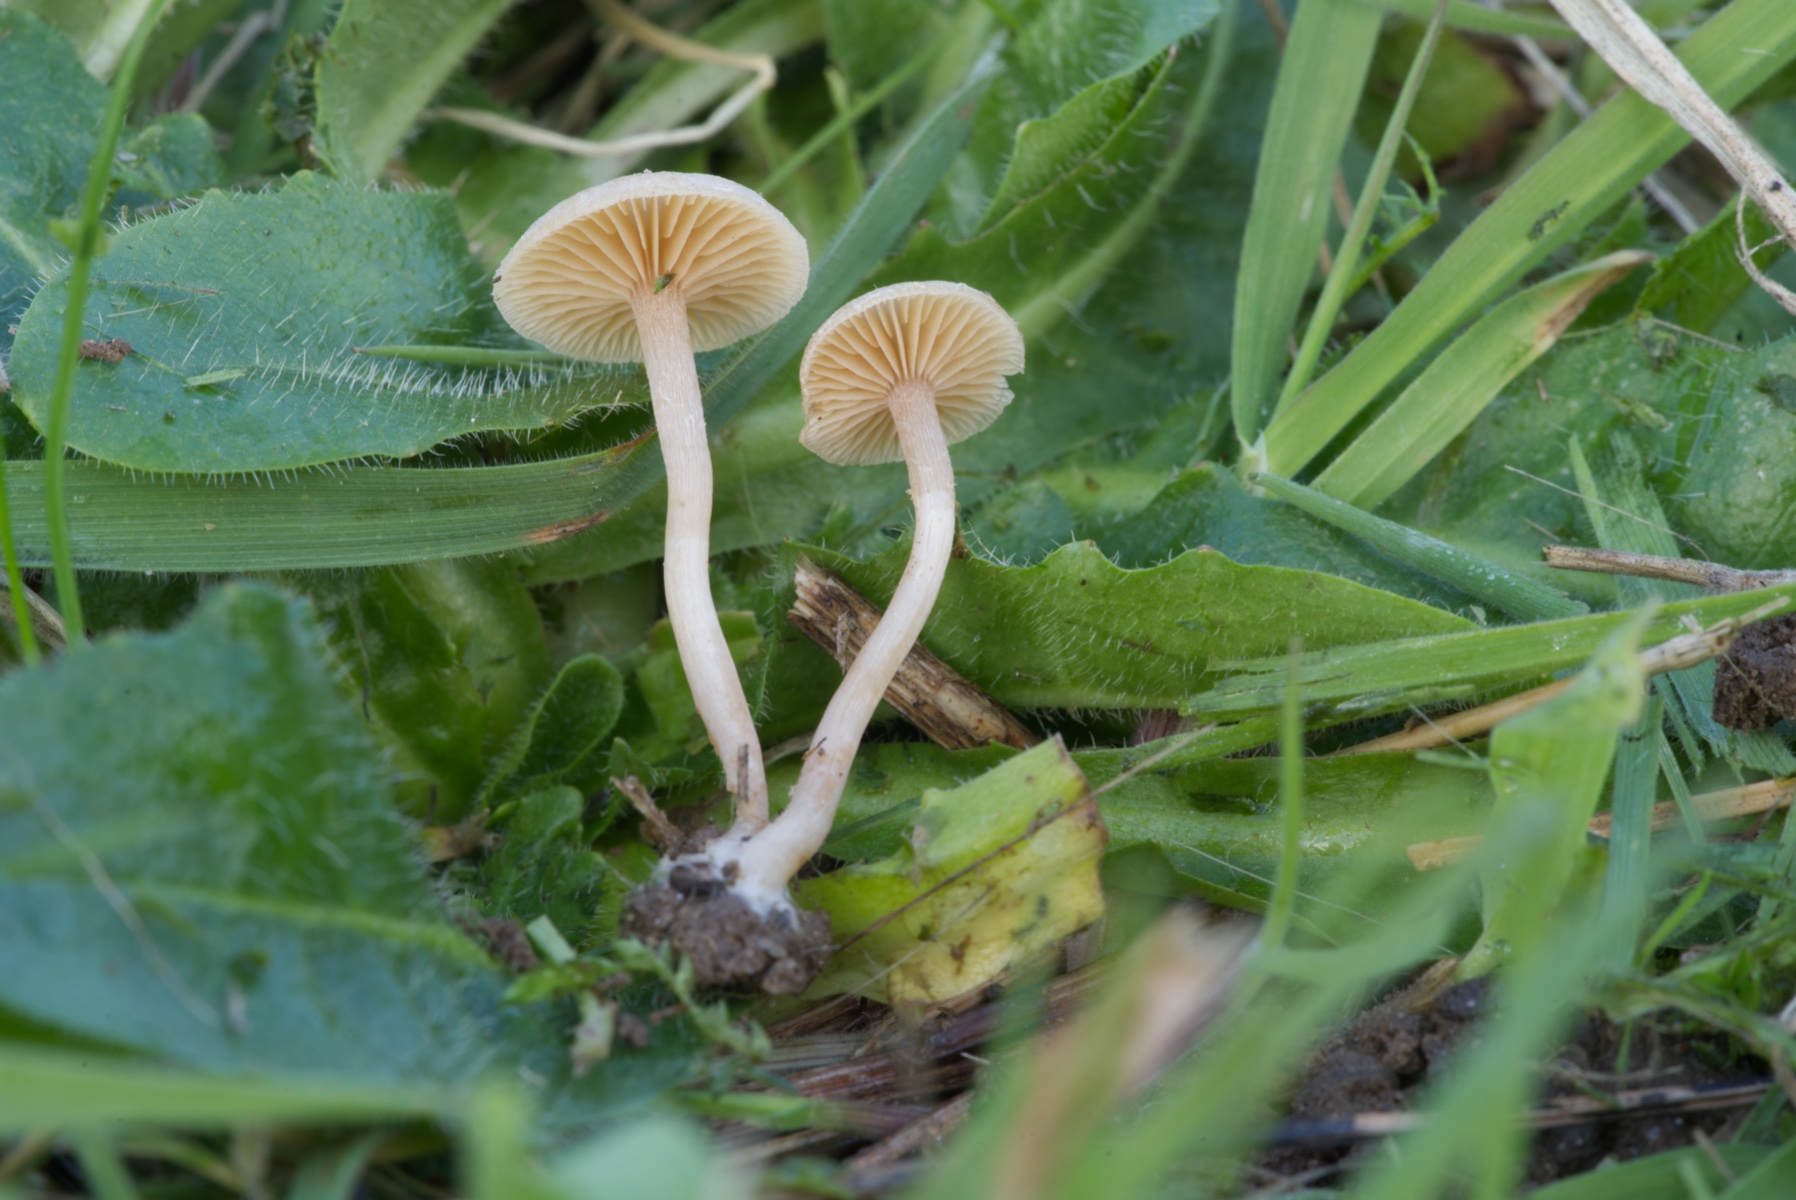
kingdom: Fungi
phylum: Basidiomycota
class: Agaricomycetes
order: Agaricales
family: Tubariaceae
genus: Tubaria
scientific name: Tubaria furfuracea
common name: kliddet fnughat
